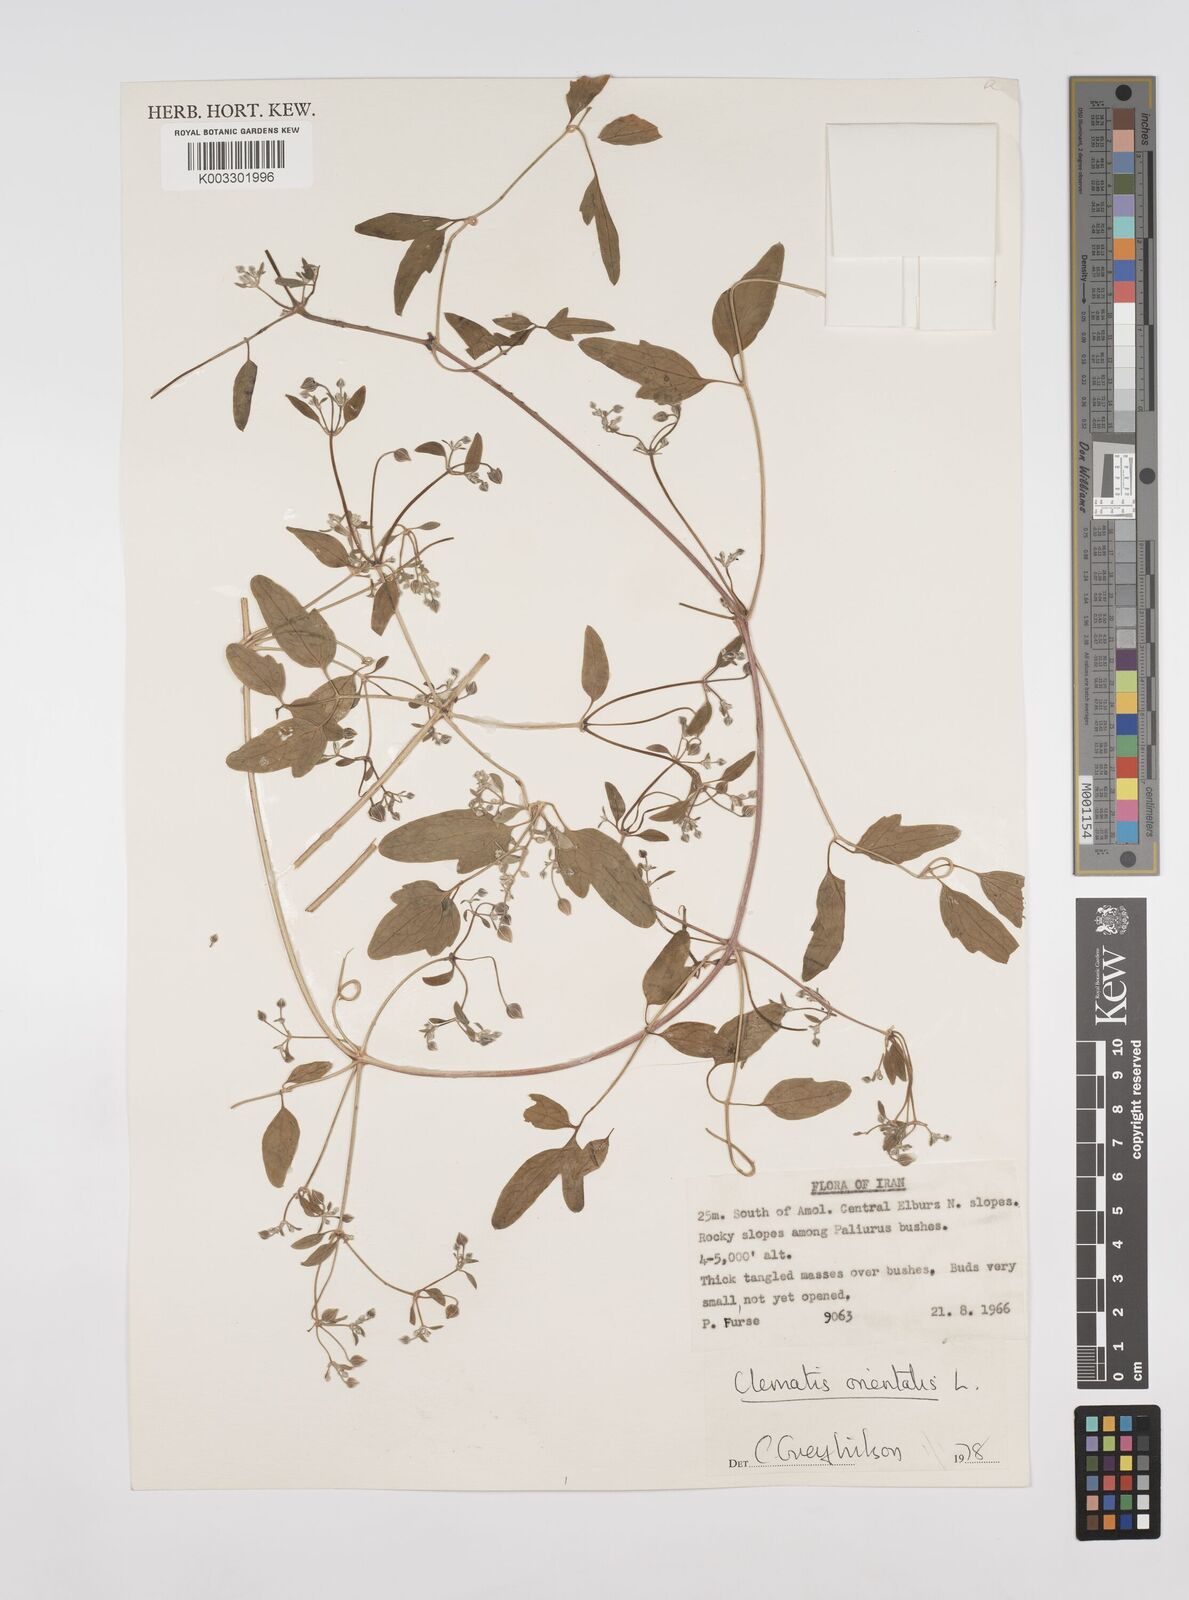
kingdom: Plantae
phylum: Tracheophyta
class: Magnoliopsida
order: Ranunculales
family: Ranunculaceae
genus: Clematis
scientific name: Clematis orientalis
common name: Oriental virgin's-bower
